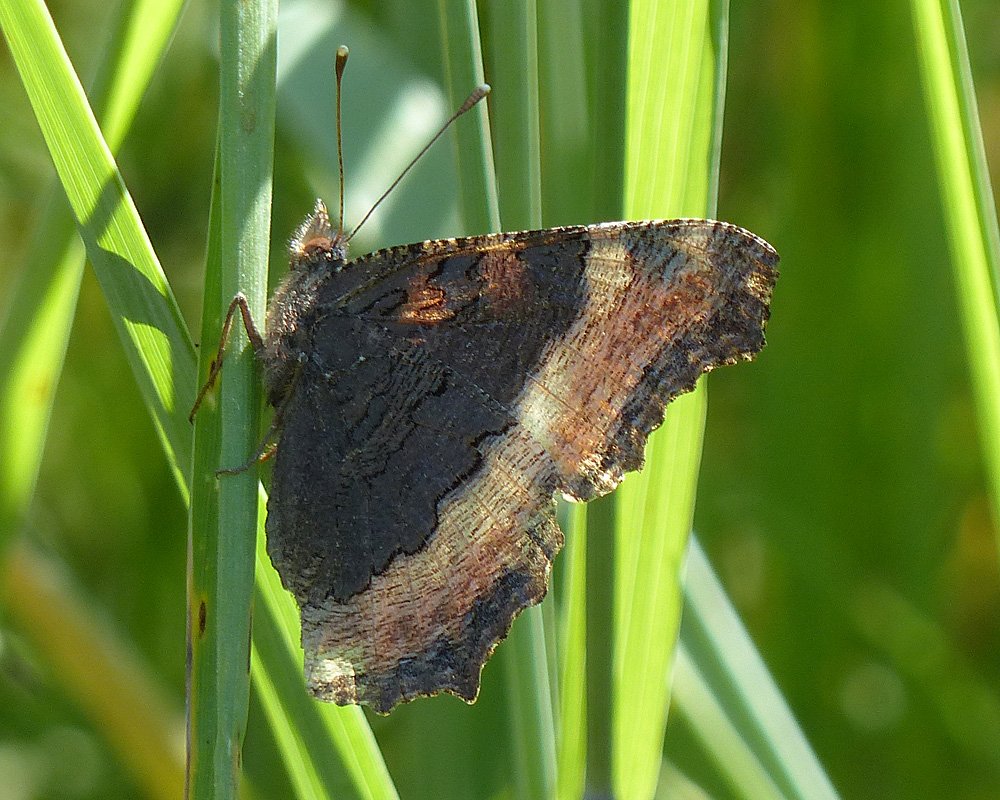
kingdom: Animalia
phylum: Arthropoda
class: Insecta
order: Lepidoptera
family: Nymphalidae
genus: Aglais
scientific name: Aglais milberti
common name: Milbert's Tortoiseshell
